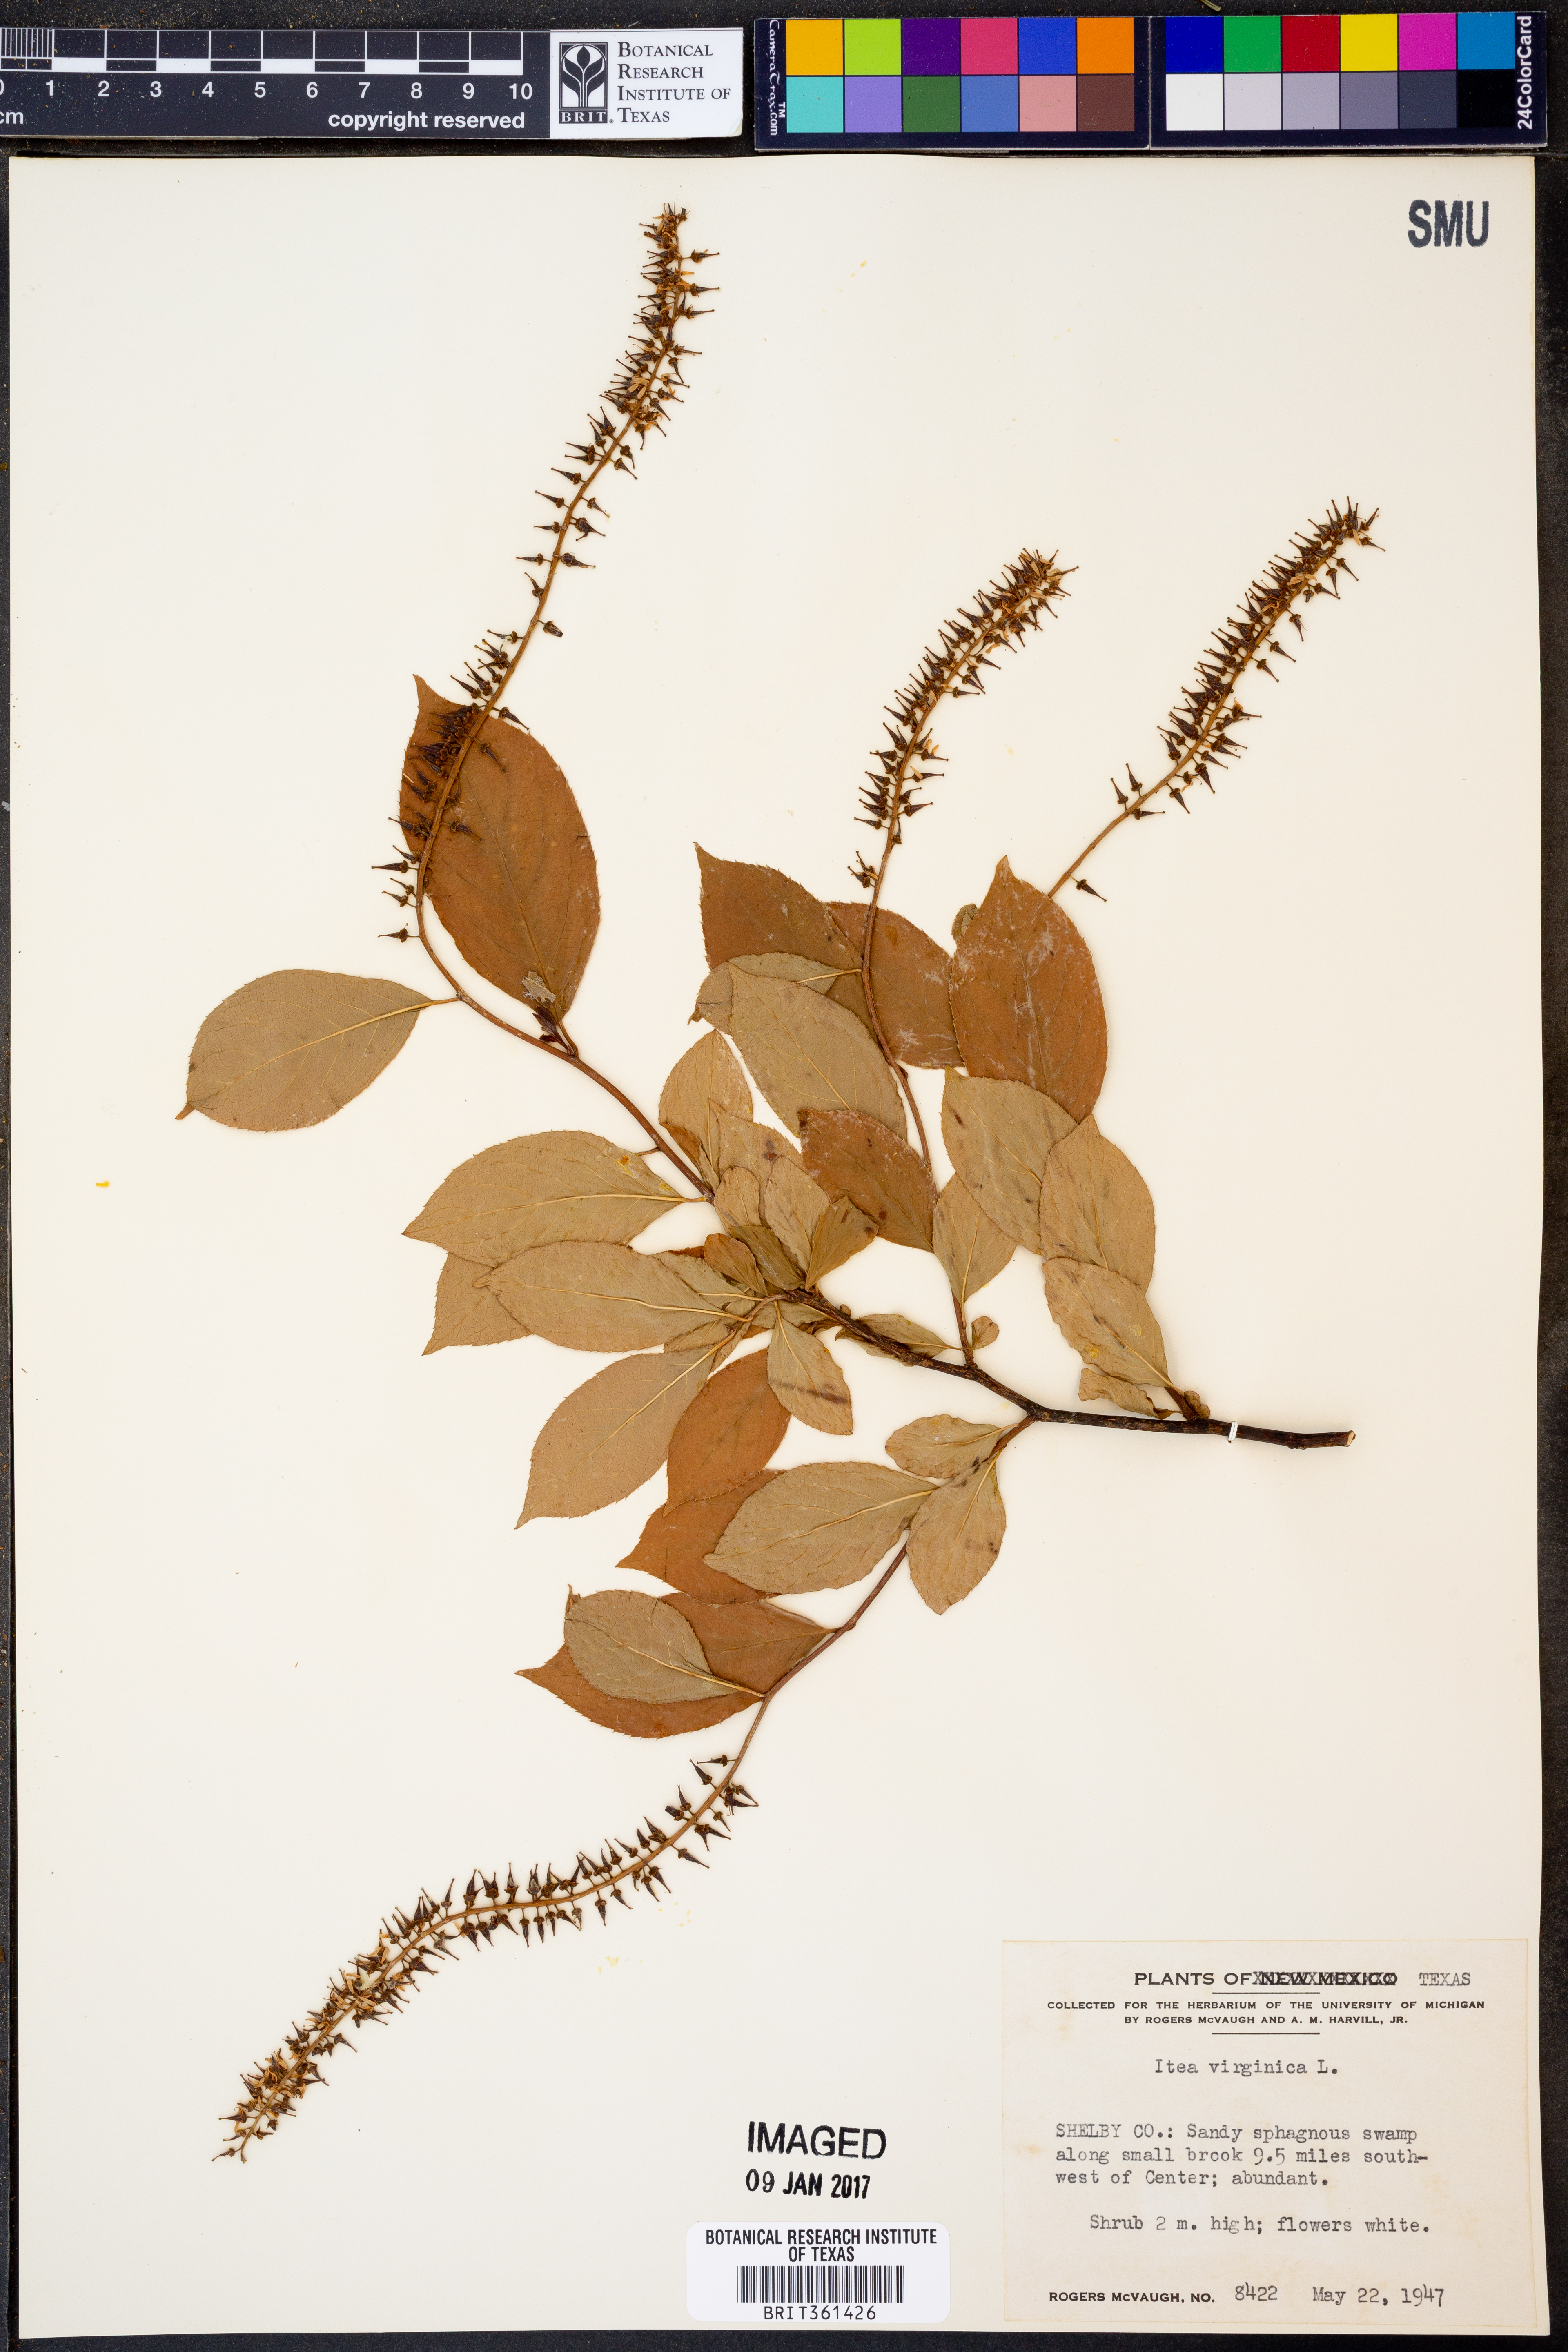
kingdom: Plantae
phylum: Tracheophyta
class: Magnoliopsida
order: Saxifragales
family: Iteaceae
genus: Itea
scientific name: Itea virginica
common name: Sweetspire
